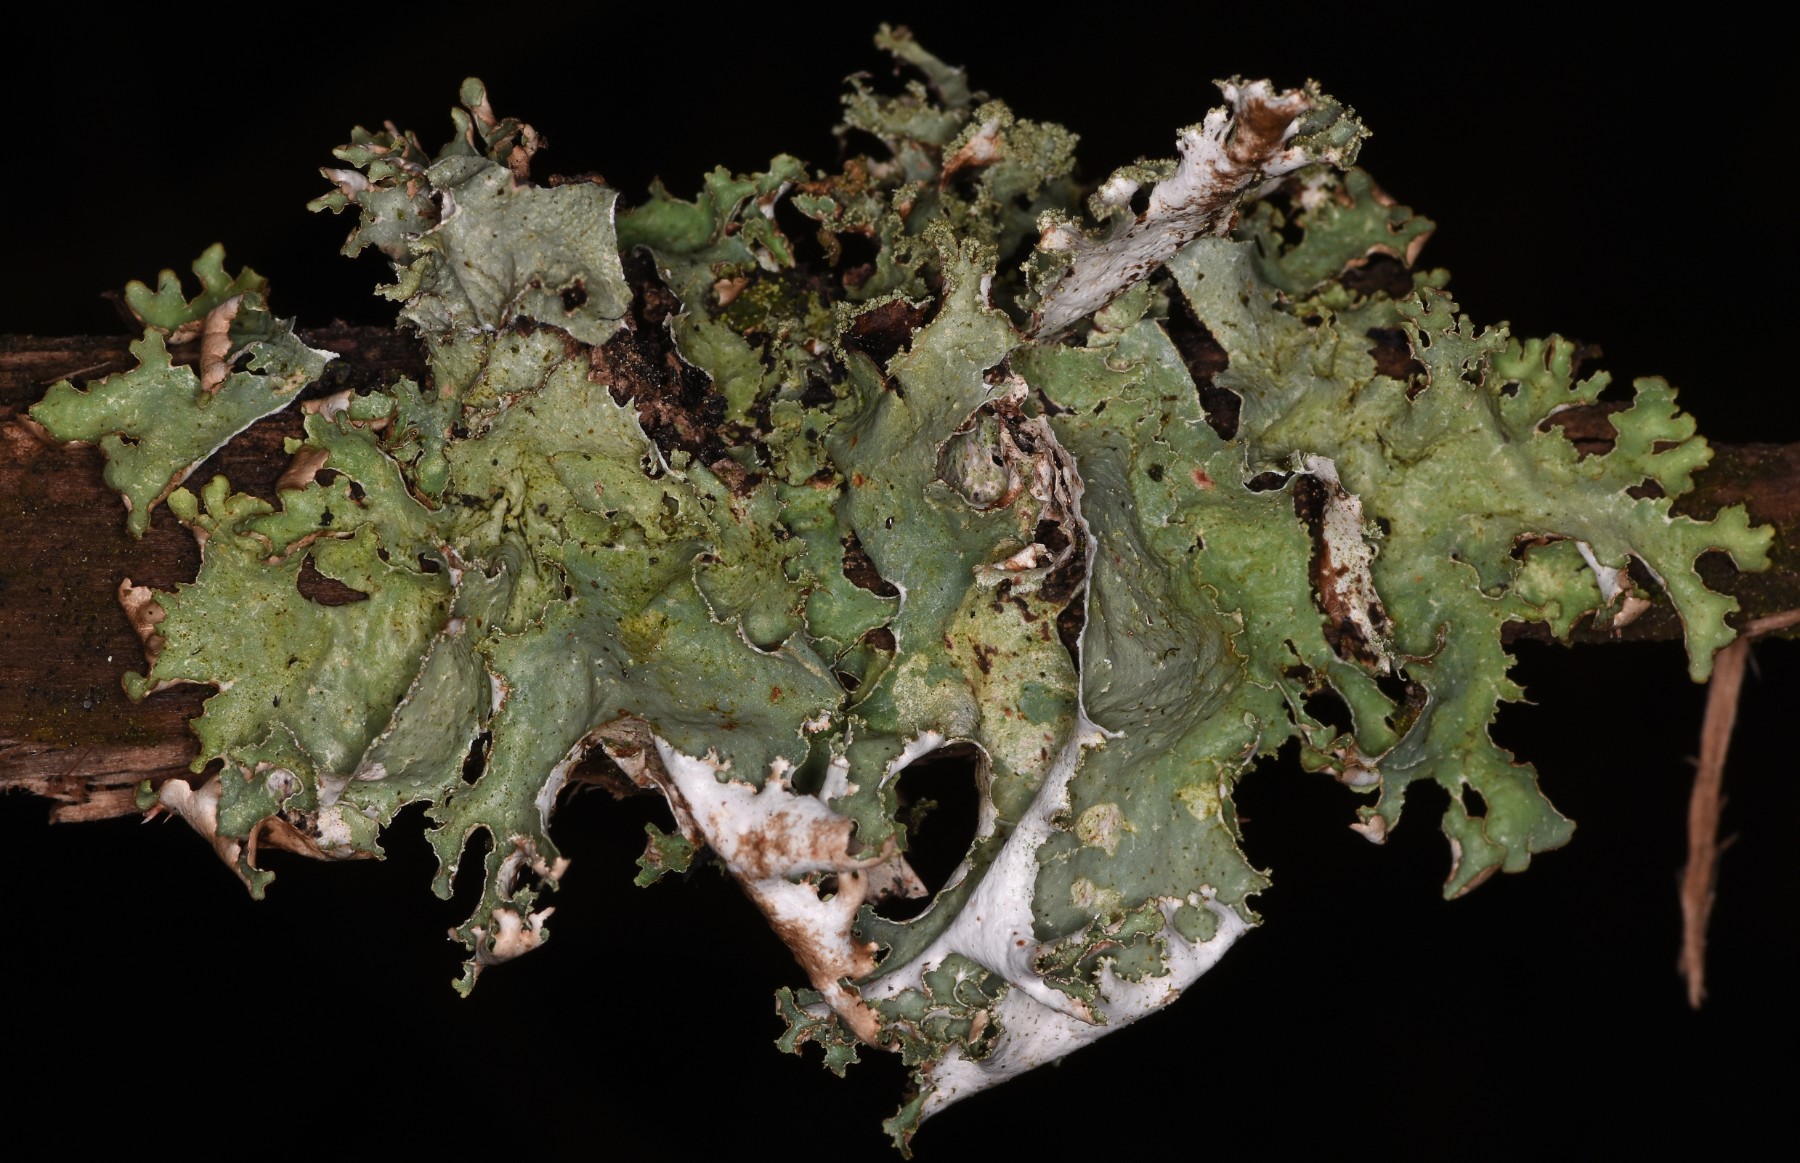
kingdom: Fungi
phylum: Ascomycota
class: Lecanoromycetes
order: Lecanorales
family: Parmeliaceae
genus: Platismatia
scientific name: Platismatia glauca
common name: blågrå papirlav
